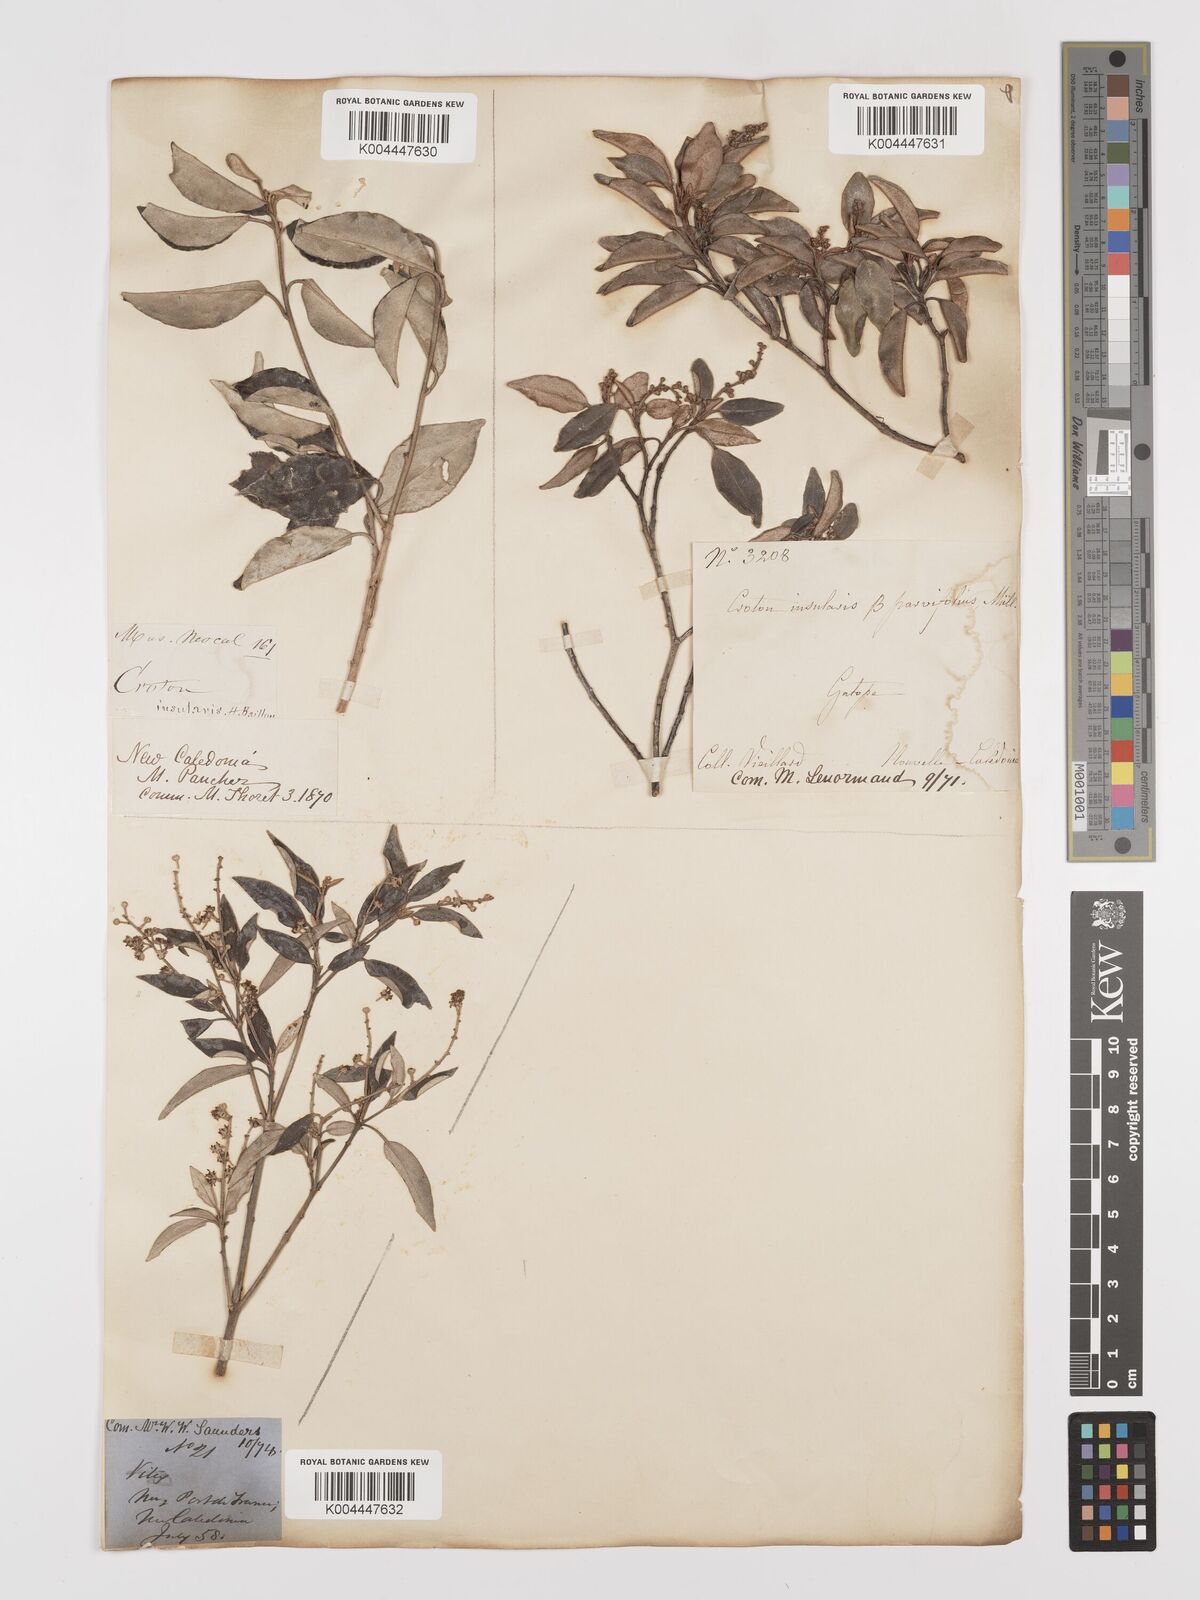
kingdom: Plantae
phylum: Tracheophyta
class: Magnoliopsida
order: Malpighiales
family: Euphorbiaceae
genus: Croton
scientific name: Croton insularis
